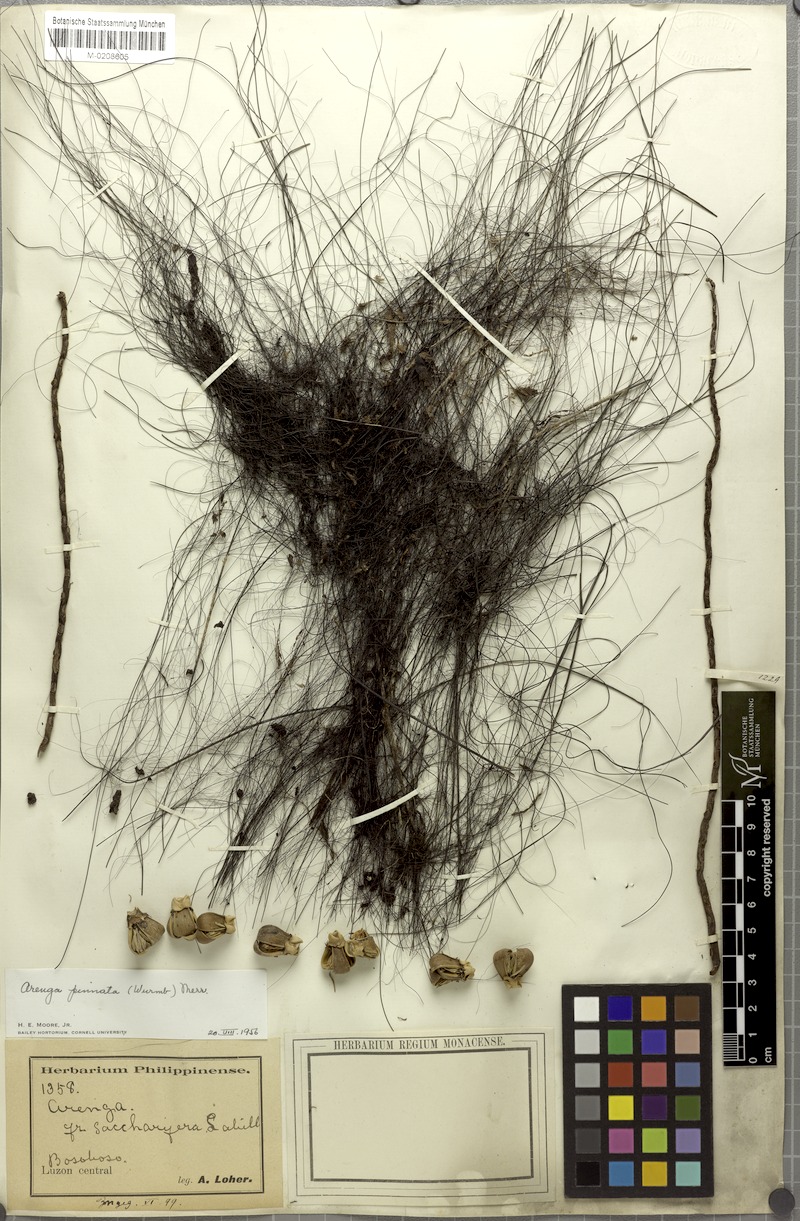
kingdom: Plantae
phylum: Tracheophyta
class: Liliopsida
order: Arecales
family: Arecaceae
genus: Arenga
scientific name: Arenga pinnata
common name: Black-fiber palm
